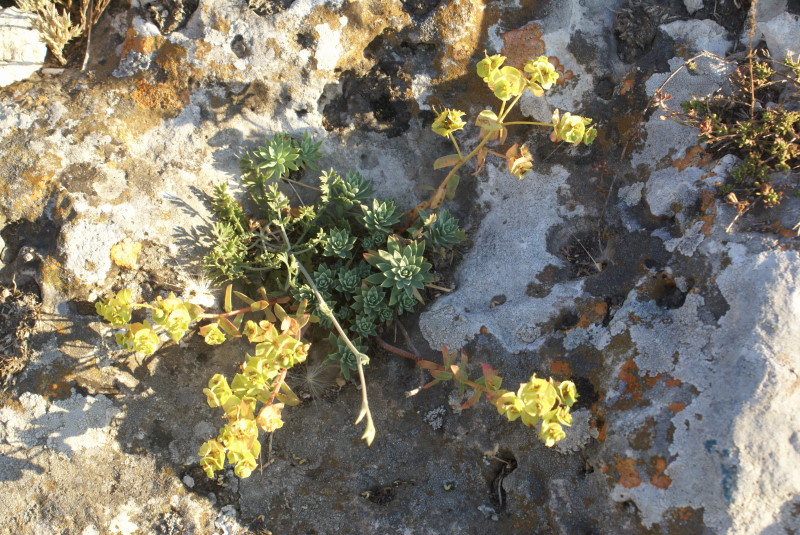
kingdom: Plantae
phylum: Tracheophyta
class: Magnoliopsida
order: Malpighiales
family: Euphorbiaceae
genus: Euphorbia
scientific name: Euphorbia petrophila
